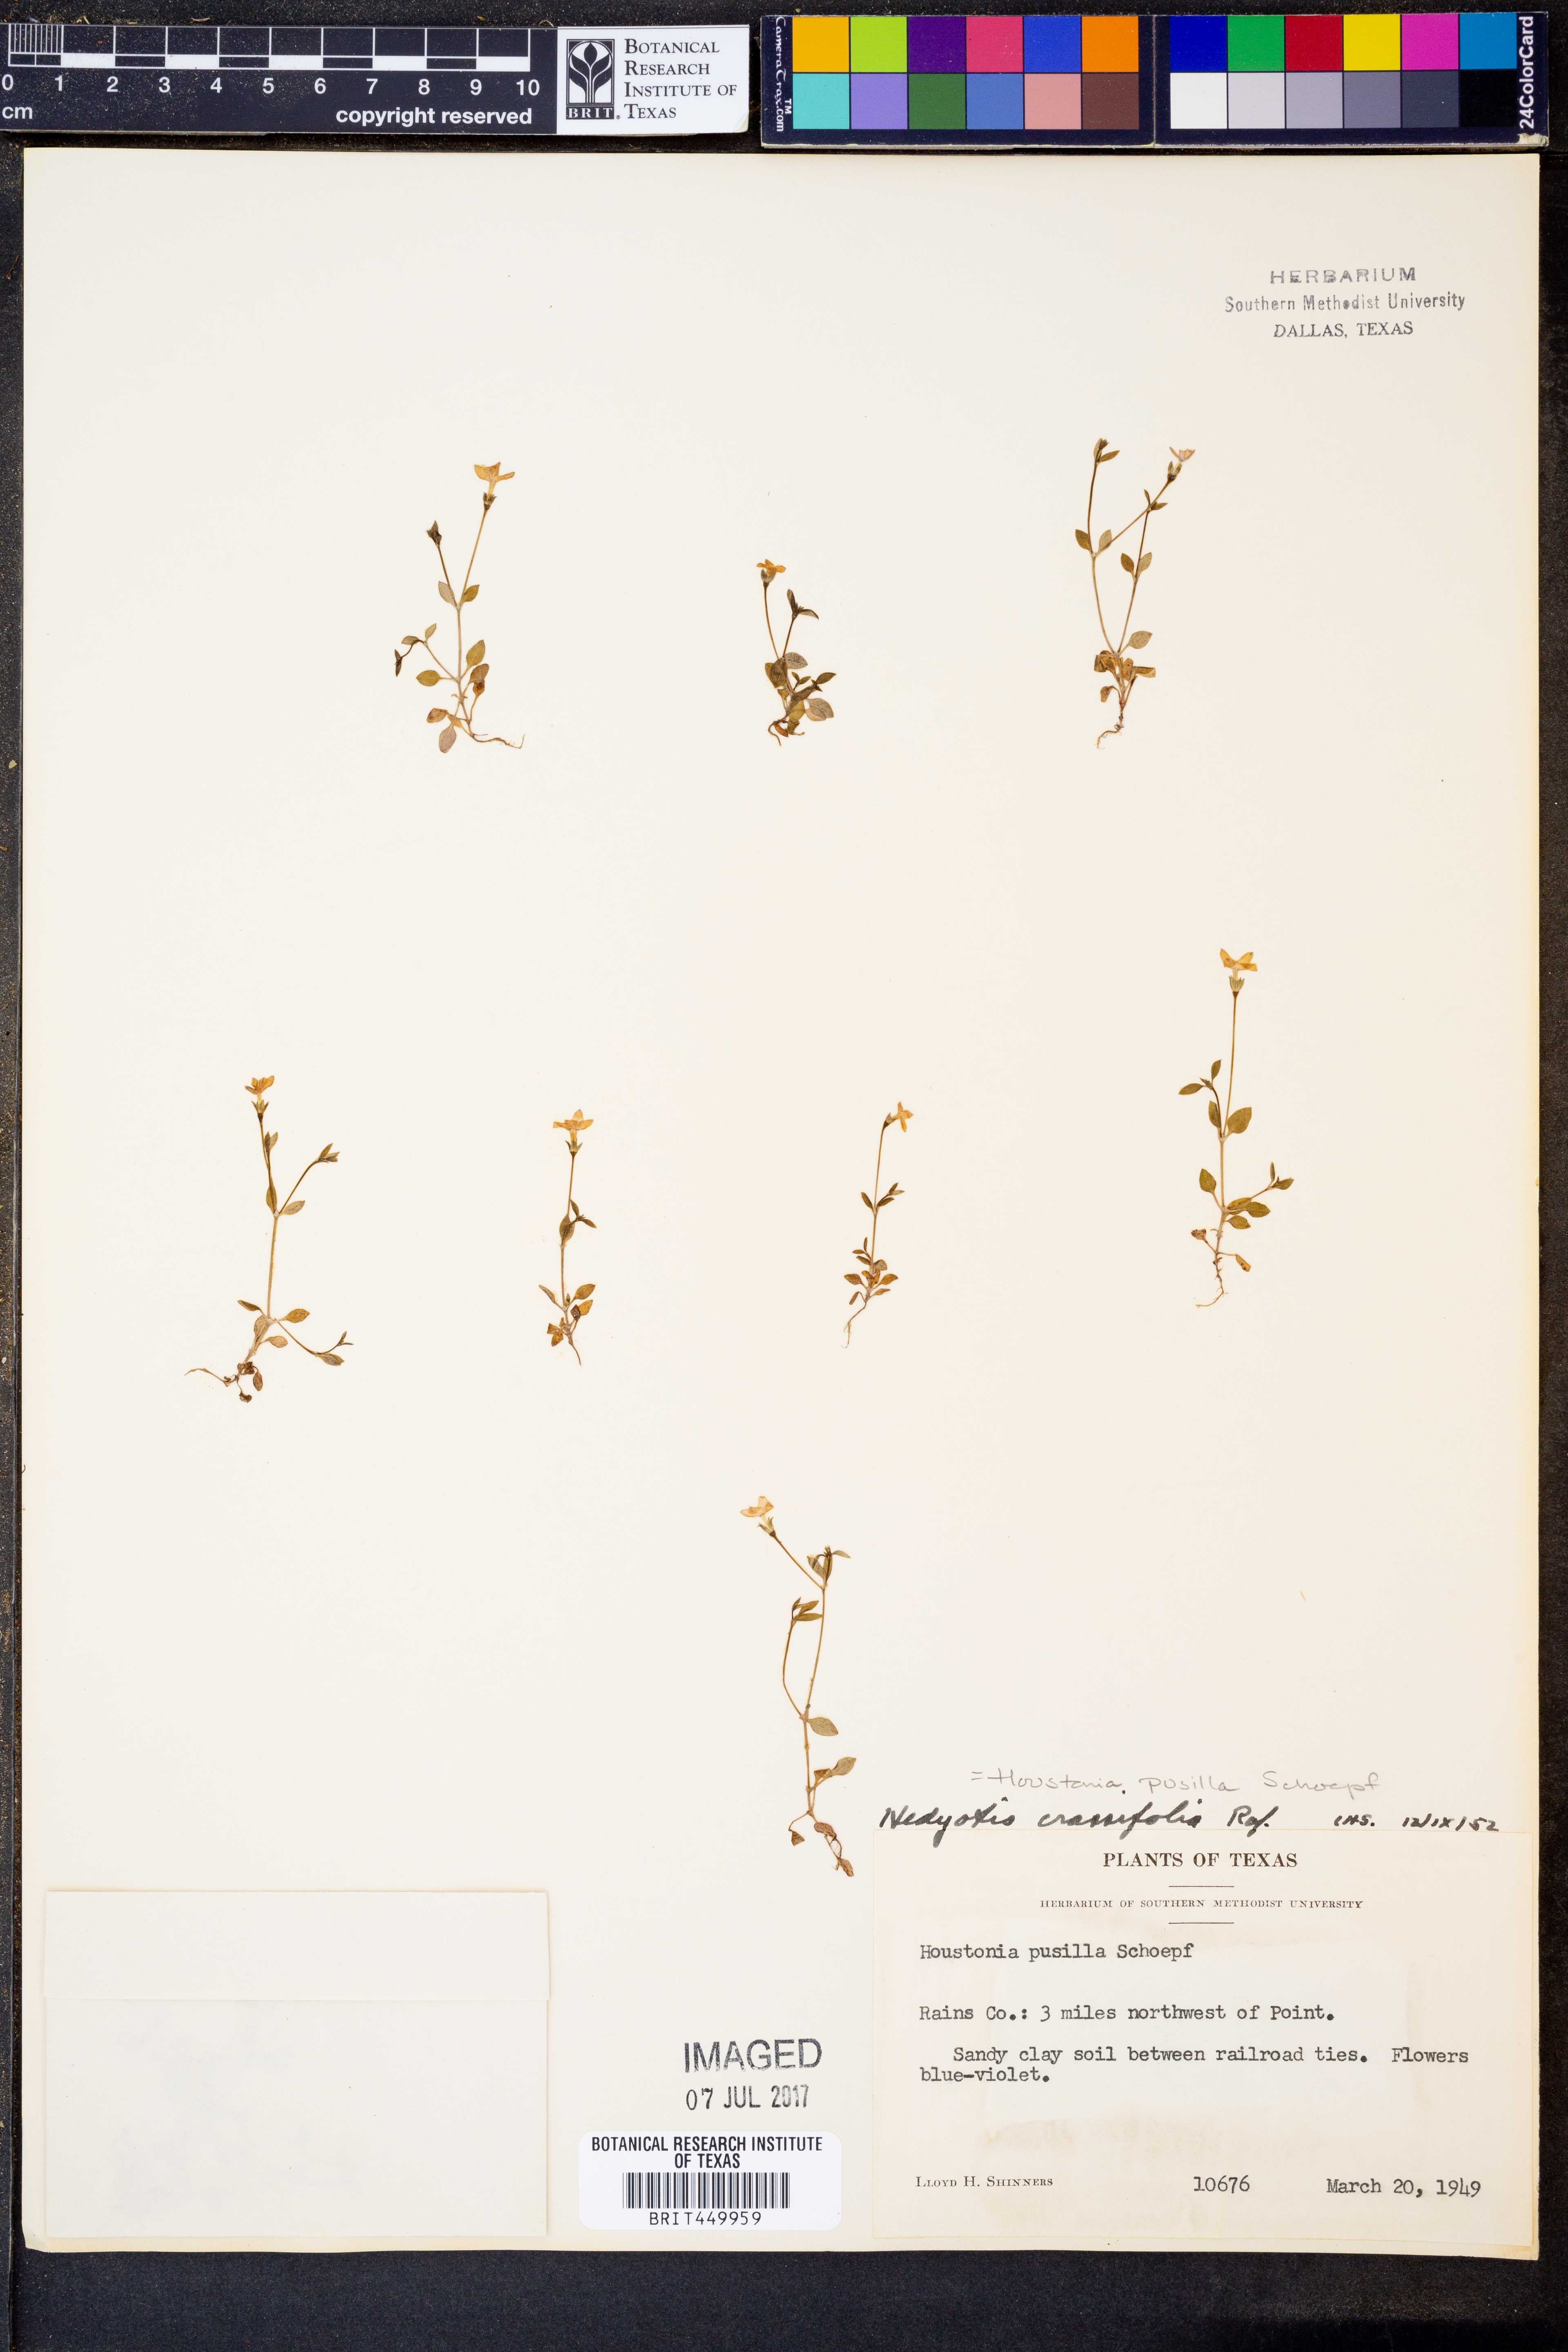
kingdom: Plantae
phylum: Tracheophyta
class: Magnoliopsida
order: Gentianales
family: Rubiaceae
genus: Houstonia
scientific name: Houstonia pusilla
